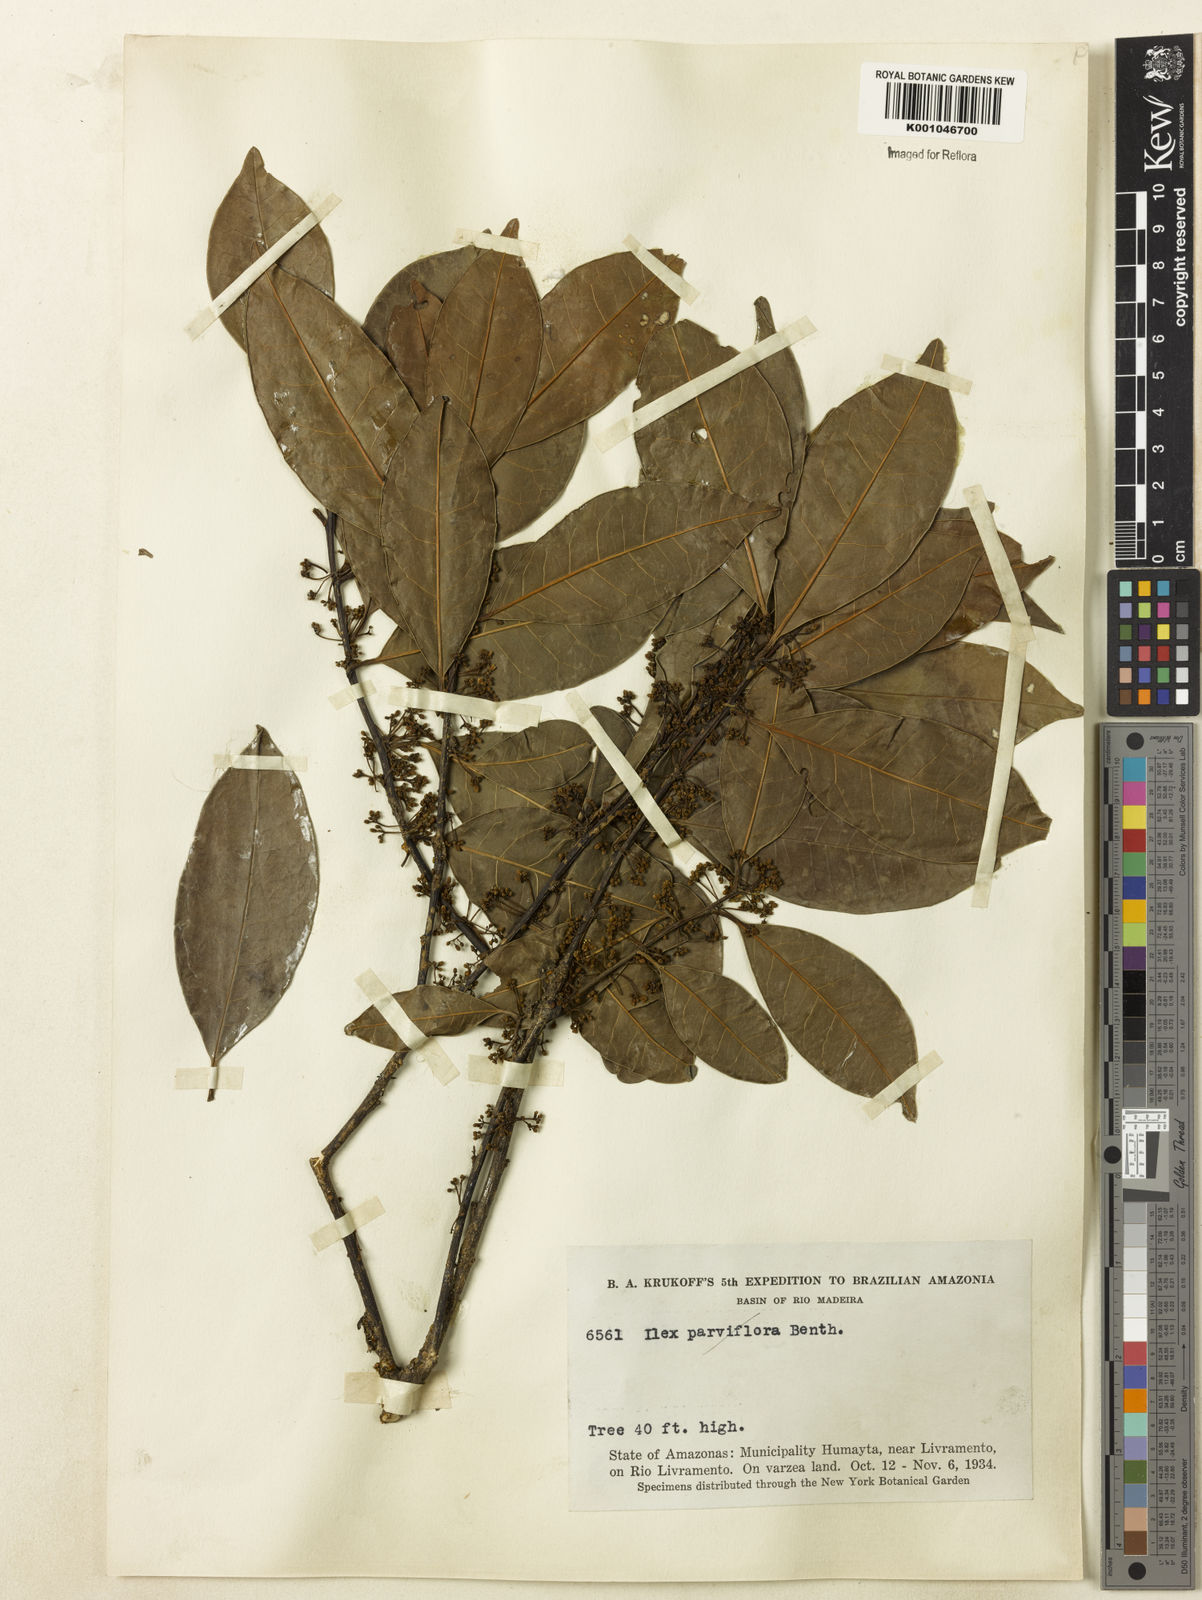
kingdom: Plantae
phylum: Tracheophyta
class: Magnoliopsida
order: Aquifoliales
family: Aquifoliaceae
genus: Ilex
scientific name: Ilex inundata
